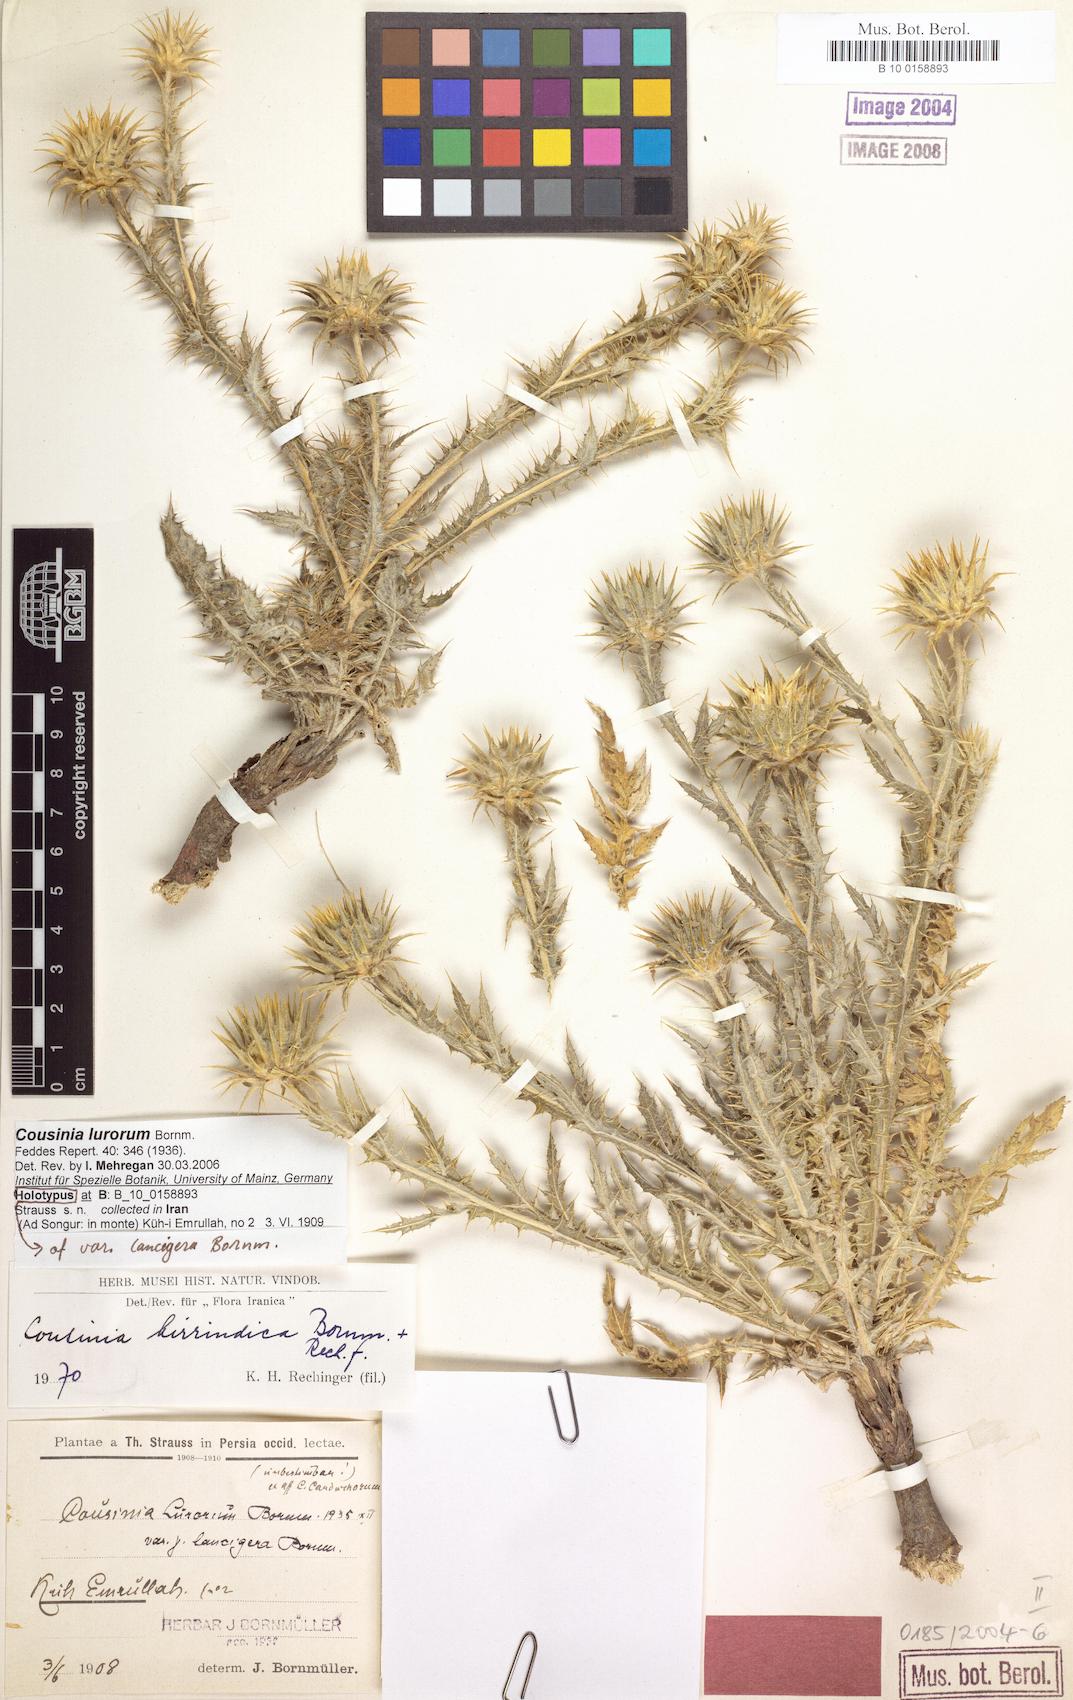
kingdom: Plantae
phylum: Tracheophyta
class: Magnoliopsida
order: Asterales
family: Asteraceae
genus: Cousinia
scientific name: Cousinia lurorum
